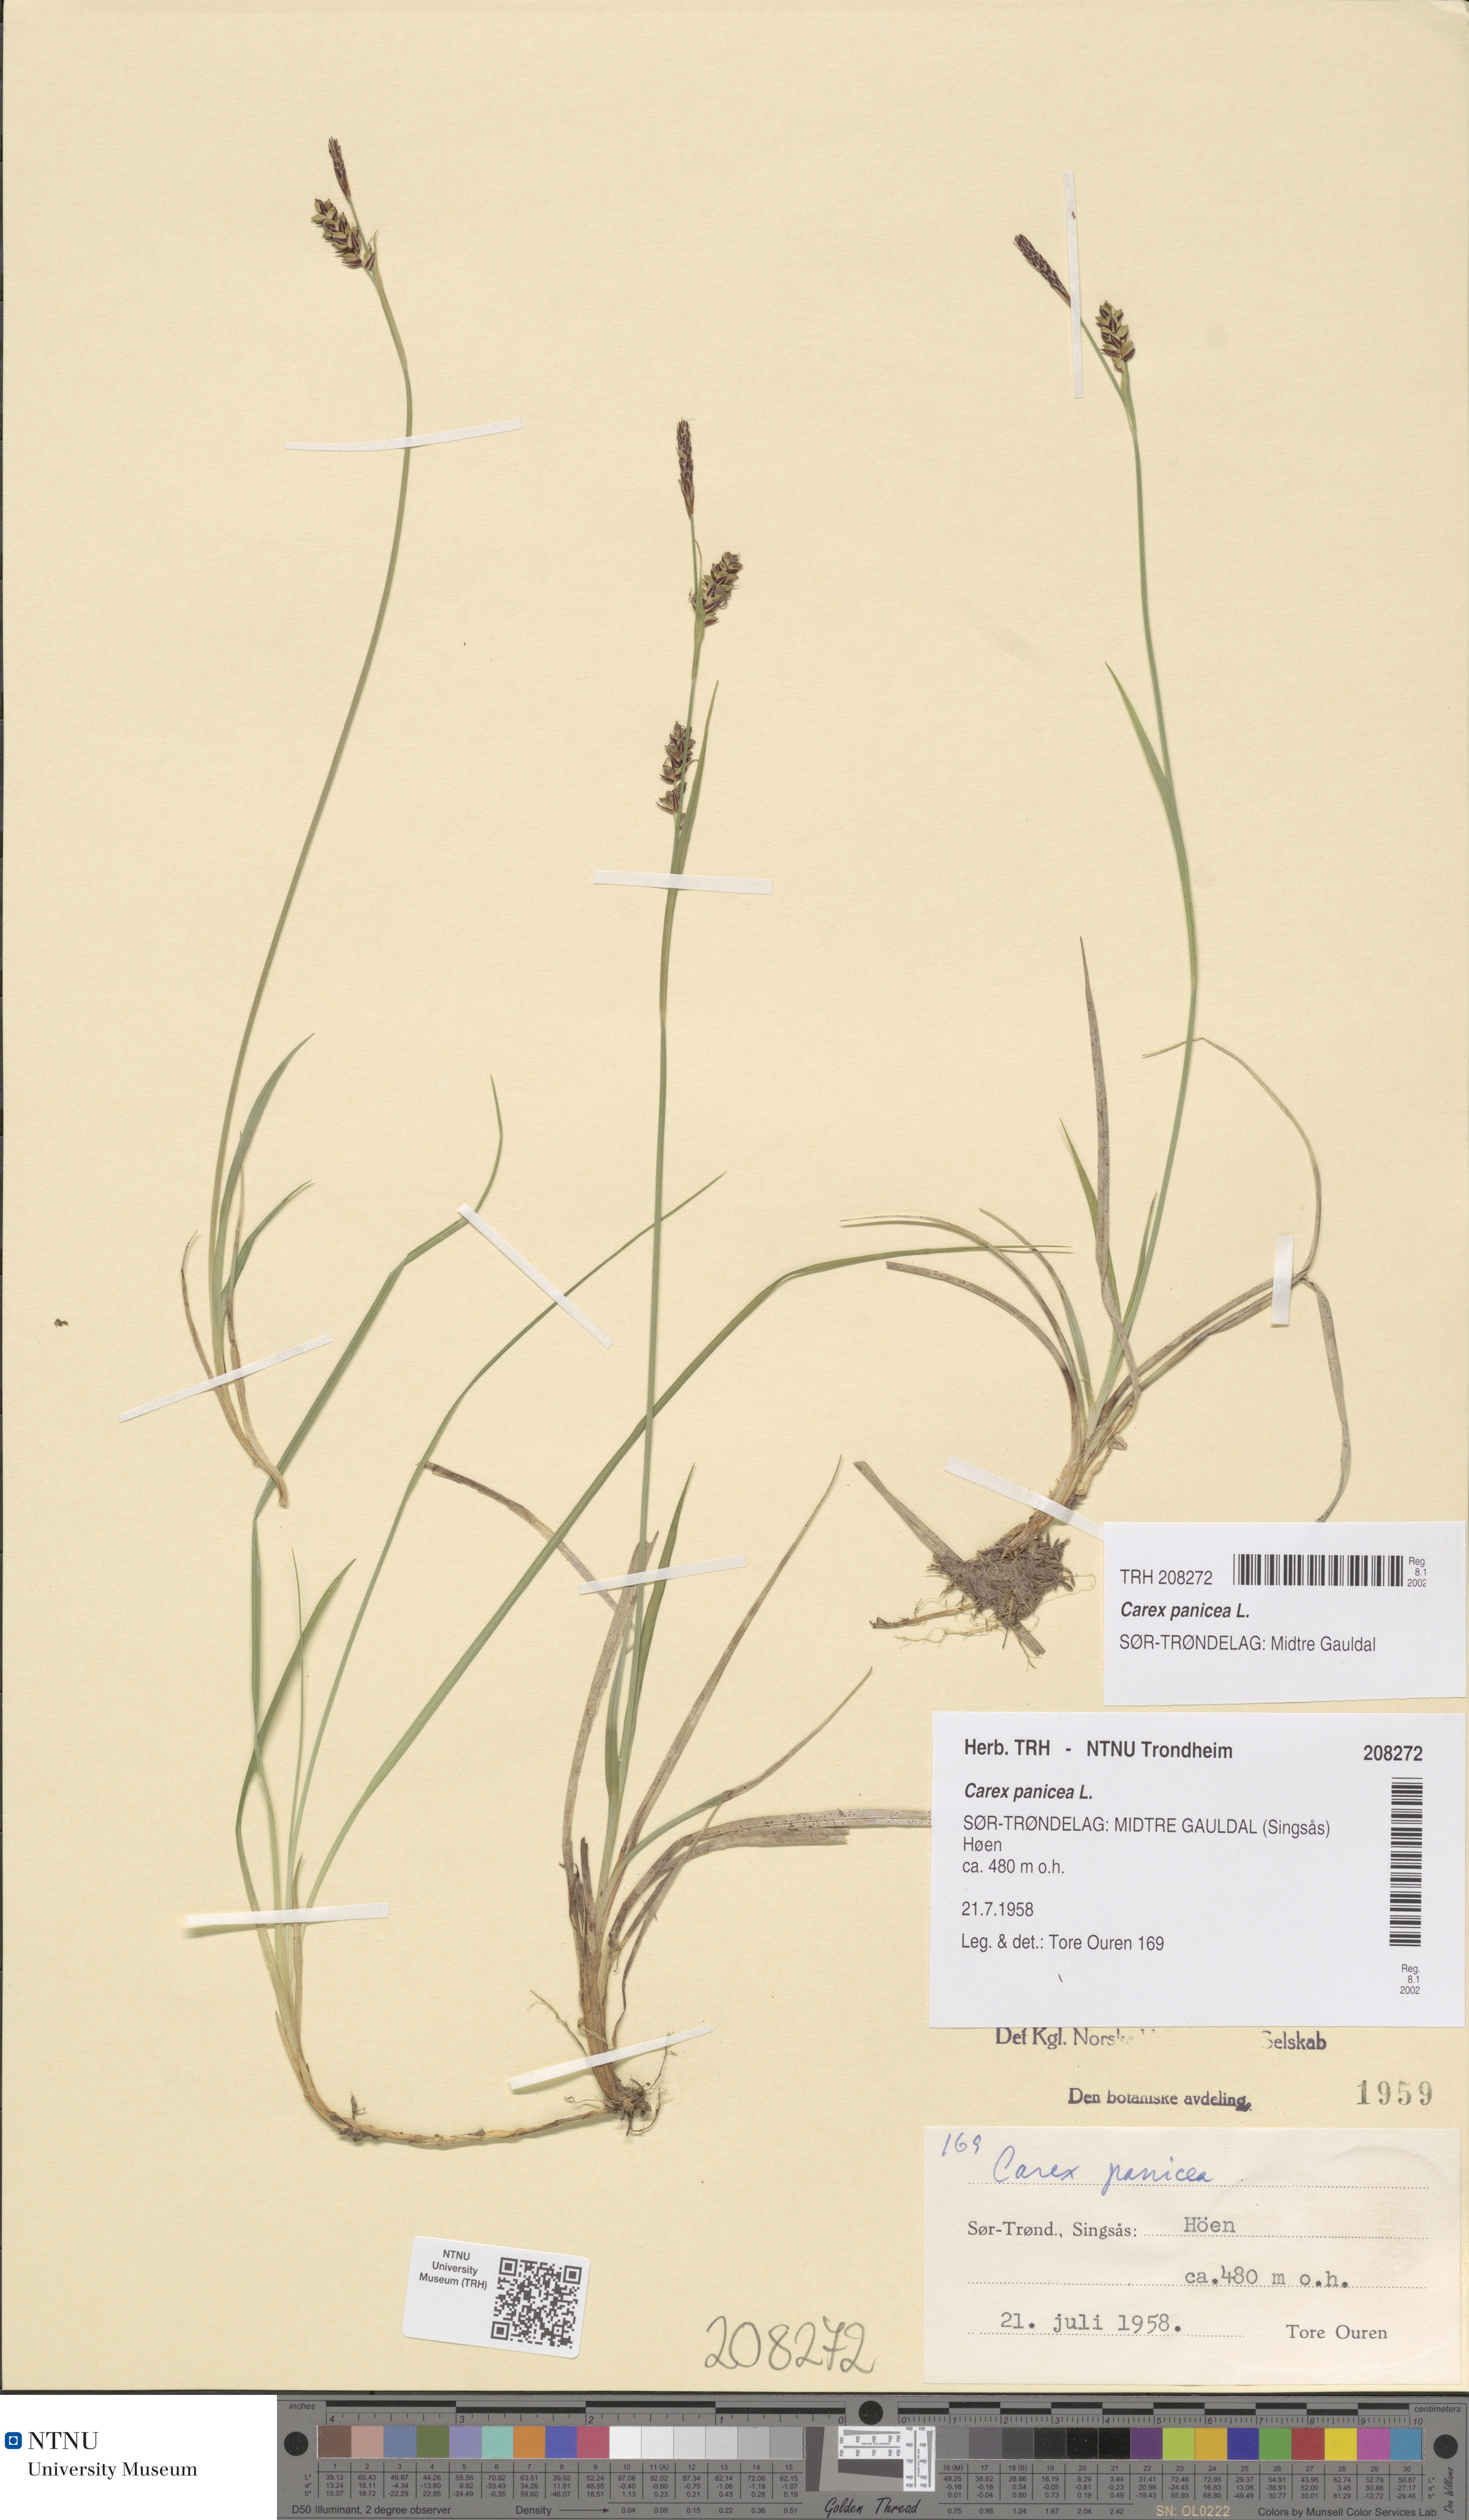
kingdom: Plantae
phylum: Tracheophyta
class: Liliopsida
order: Poales
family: Cyperaceae
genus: Carex
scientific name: Carex panicea
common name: Carnation sedge
